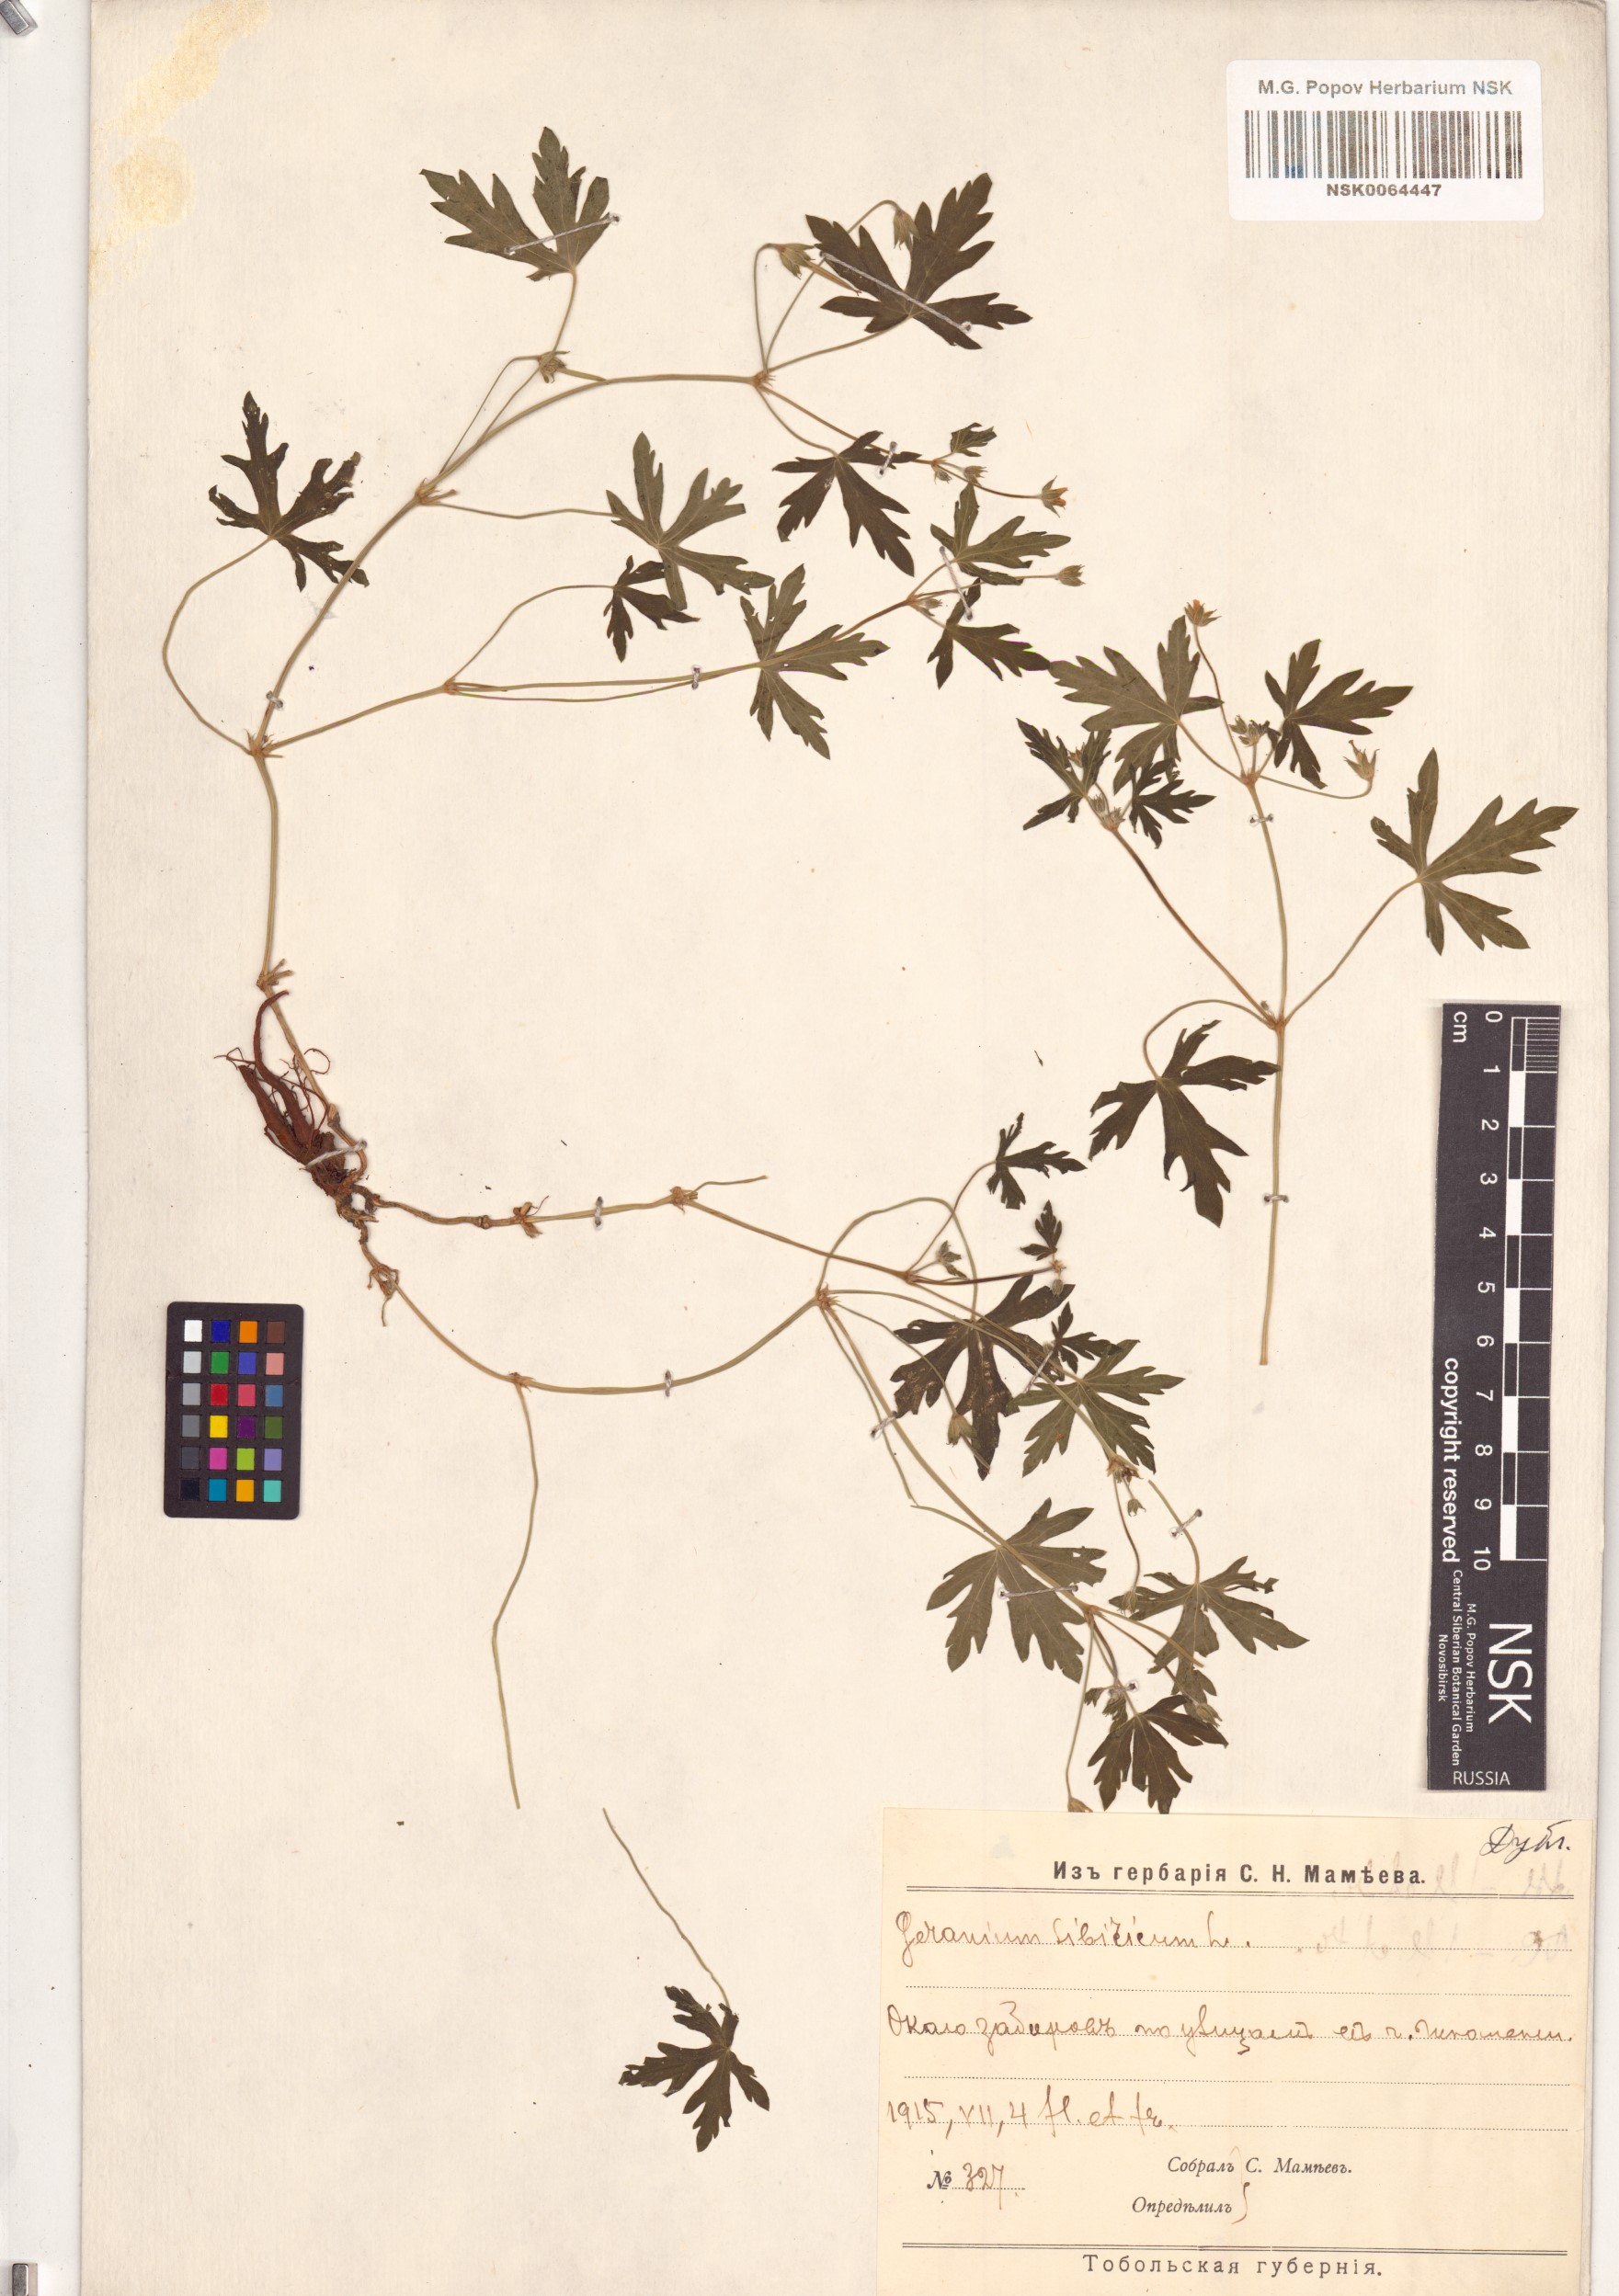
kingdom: Plantae
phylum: Tracheophyta
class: Magnoliopsida
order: Geraniales
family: Geraniaceae
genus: Geranium
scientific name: Geranium sibiricum
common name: Siberian crane's-bill
